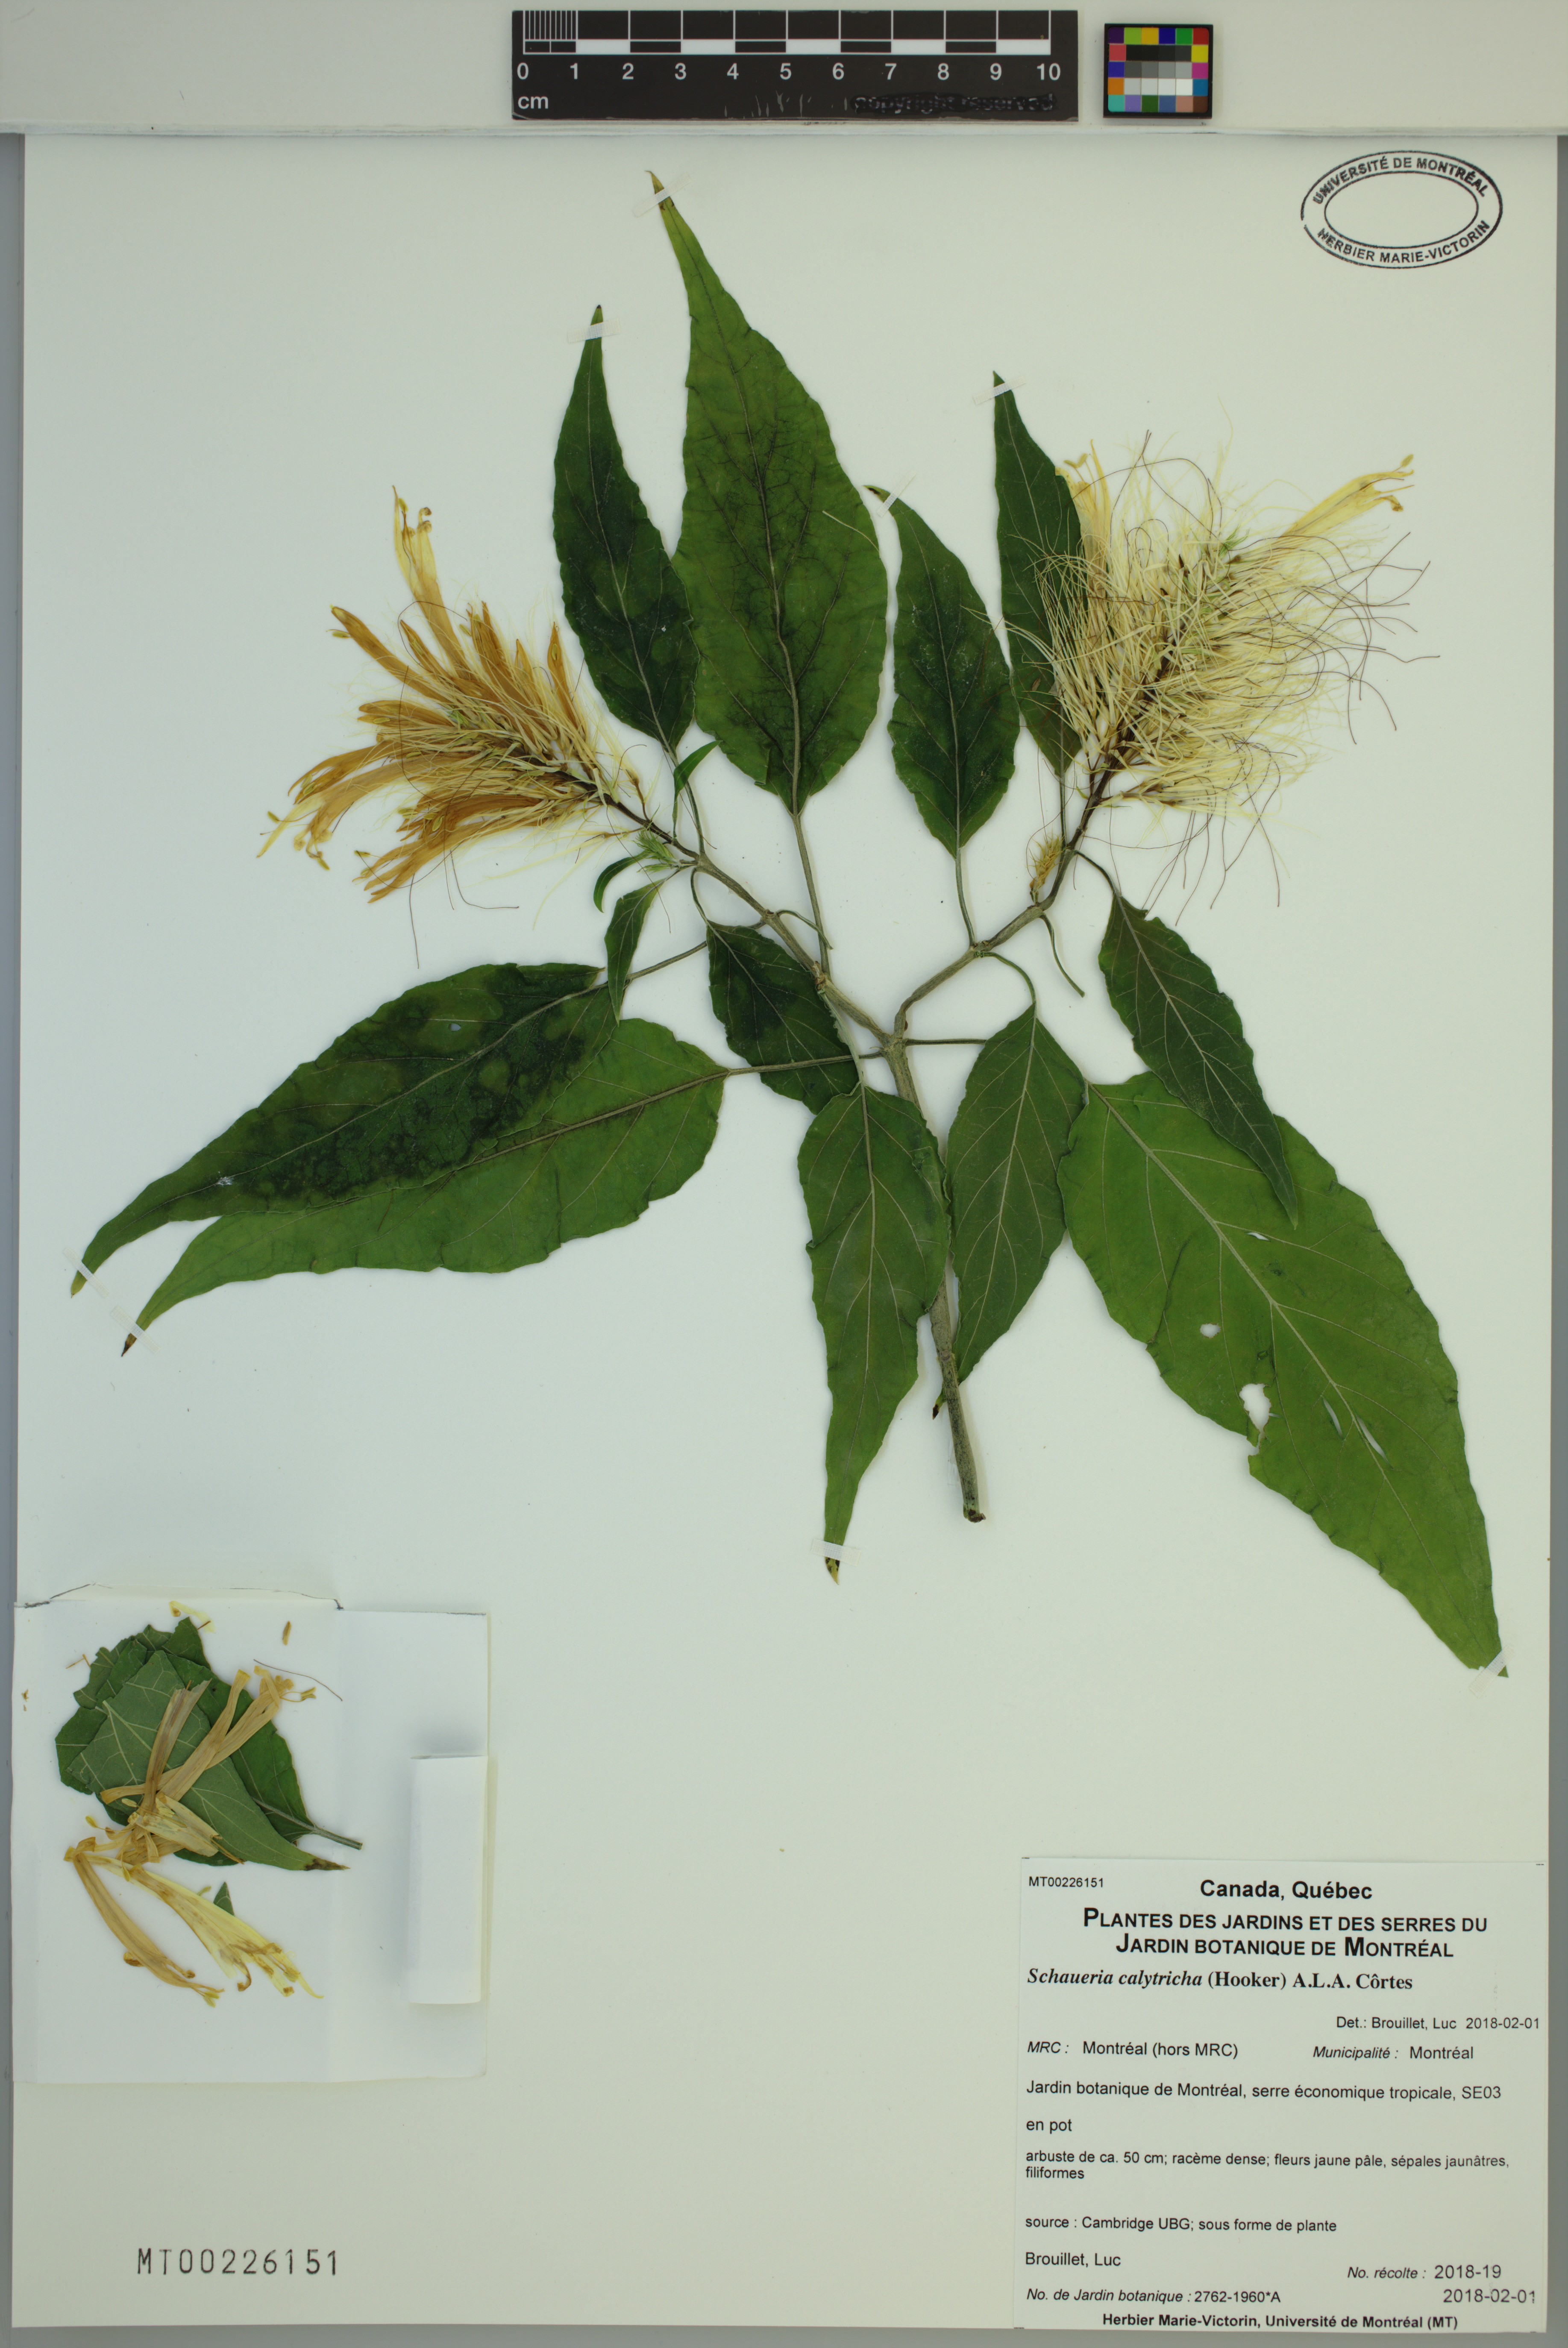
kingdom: Plantae
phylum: Tracheophyta
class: Magnoliopsida
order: Lamiales
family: Acanthaceae
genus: Schaueria
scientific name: Schaueria calytricha
